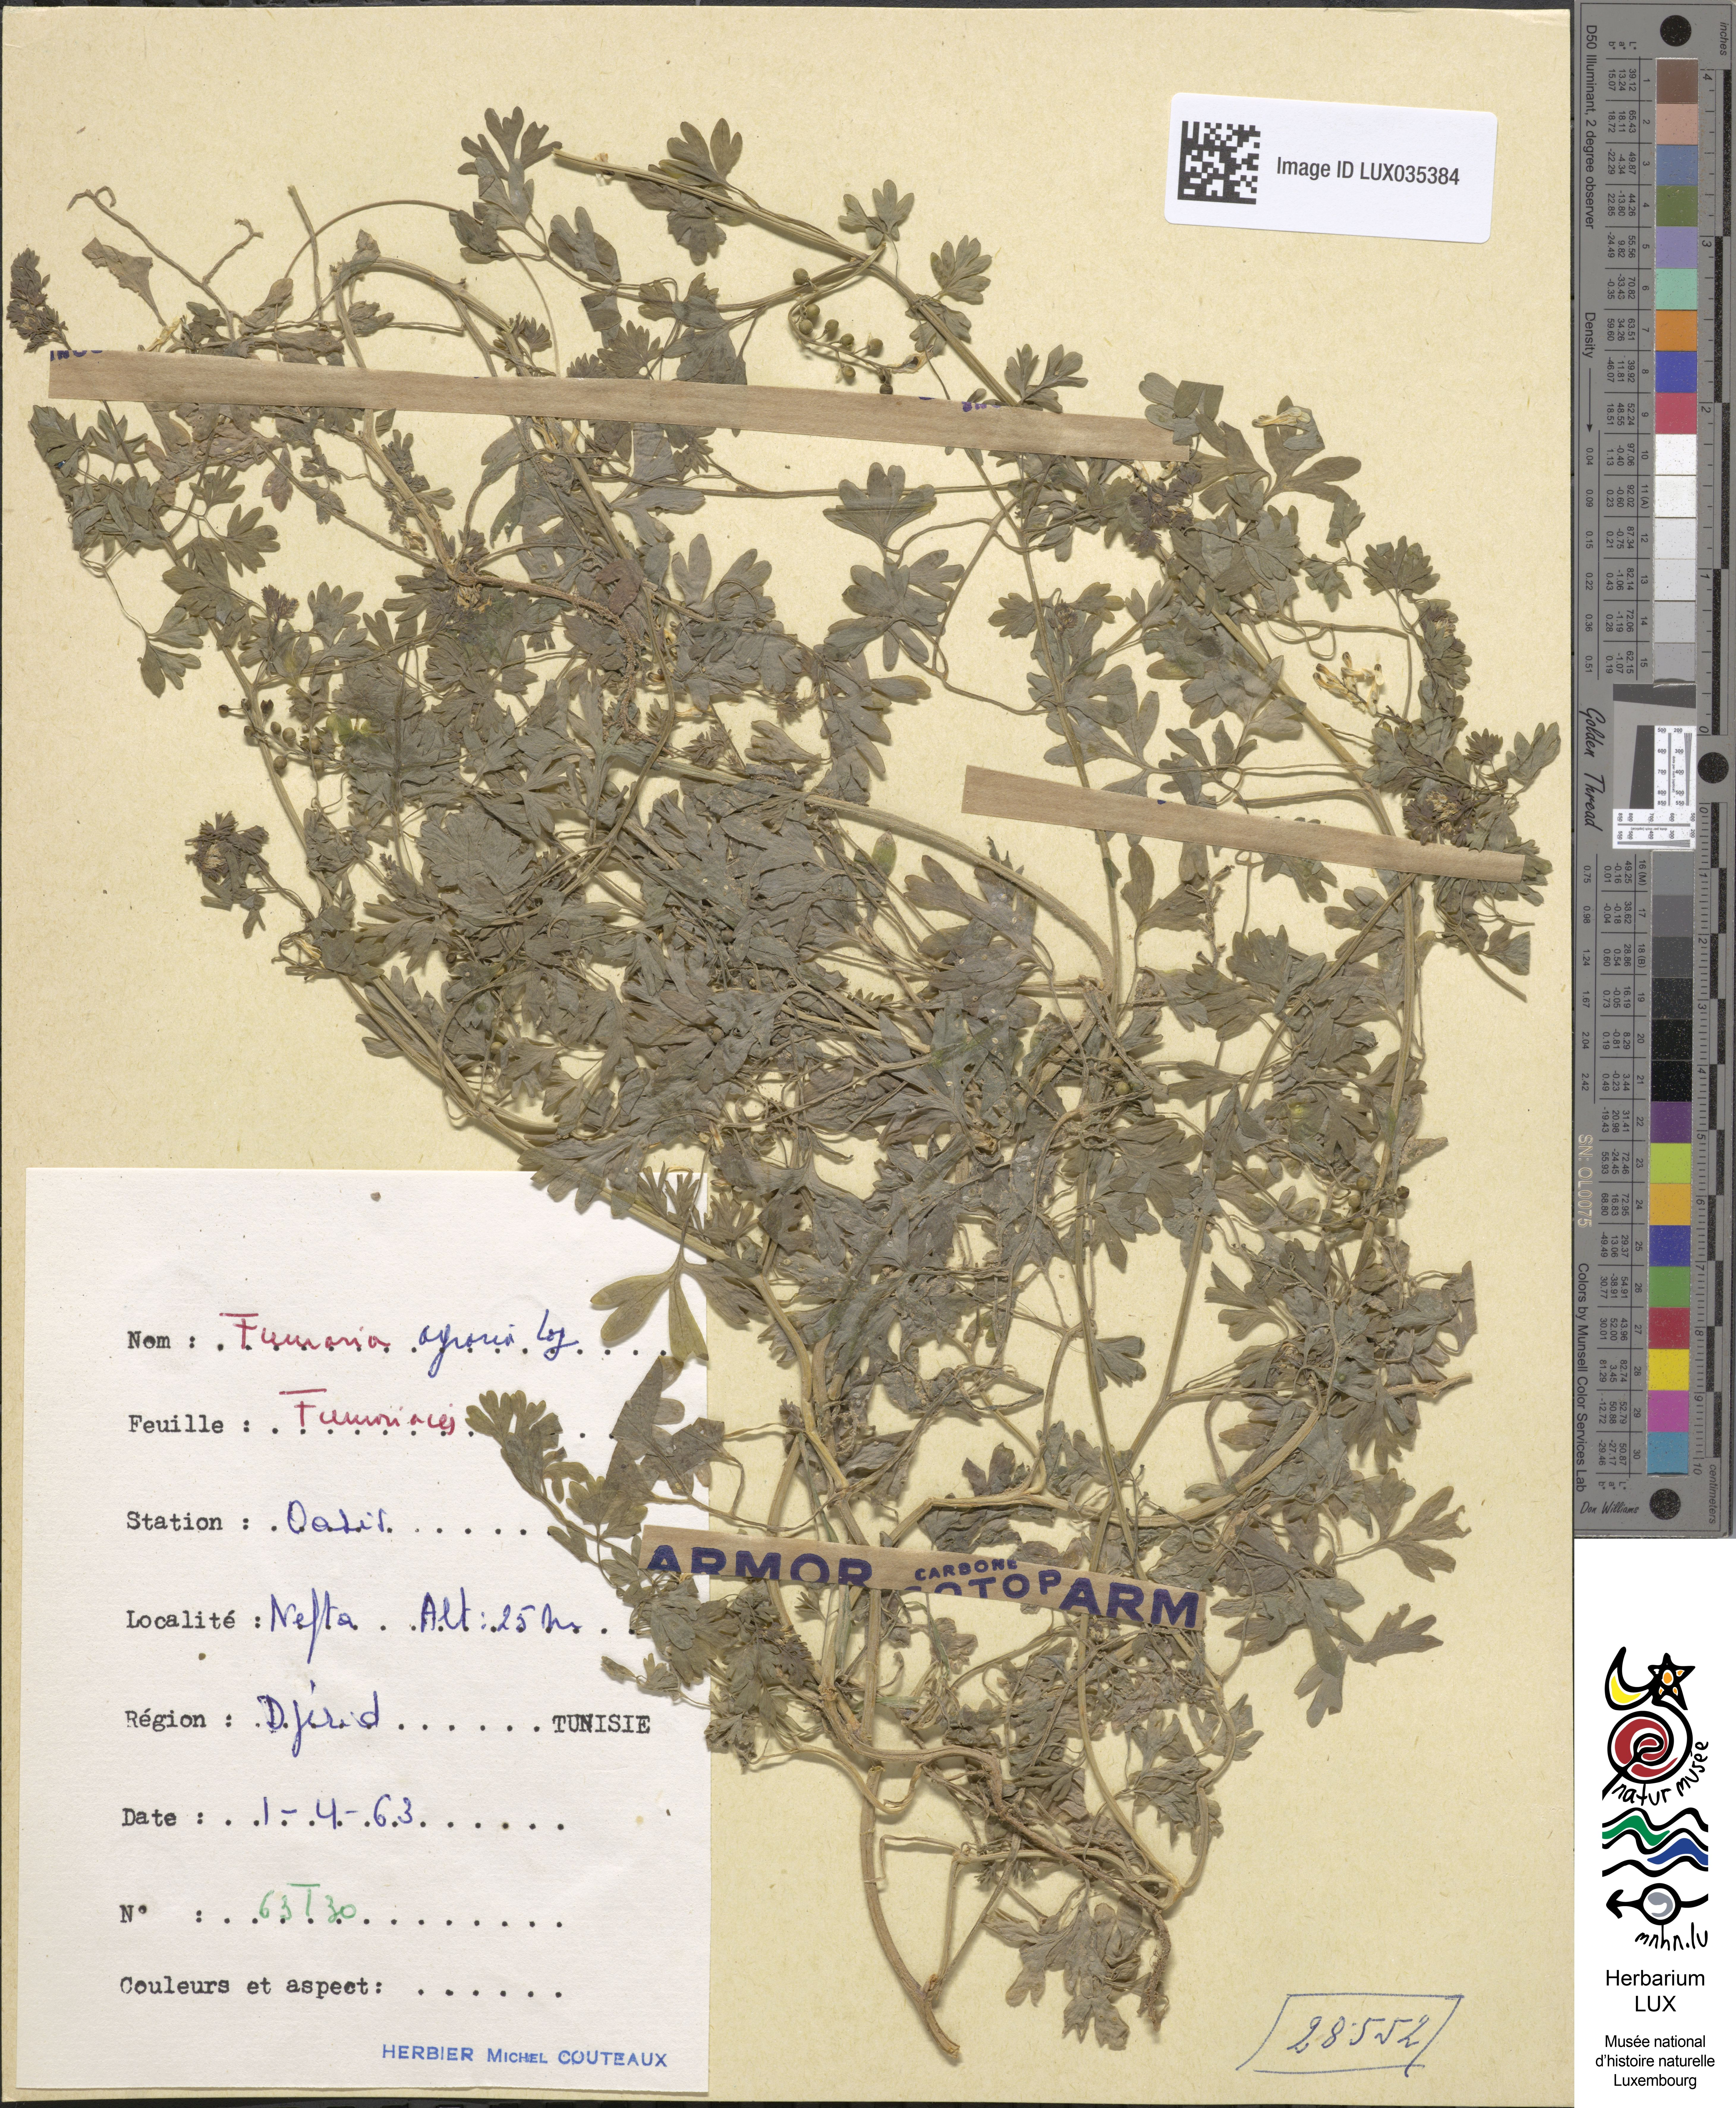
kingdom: Plantae
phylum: Tracheophyta
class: Magnoliopsida
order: Ranunculales
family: Papaveraceae
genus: Fumaria
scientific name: Fumaria agraria
